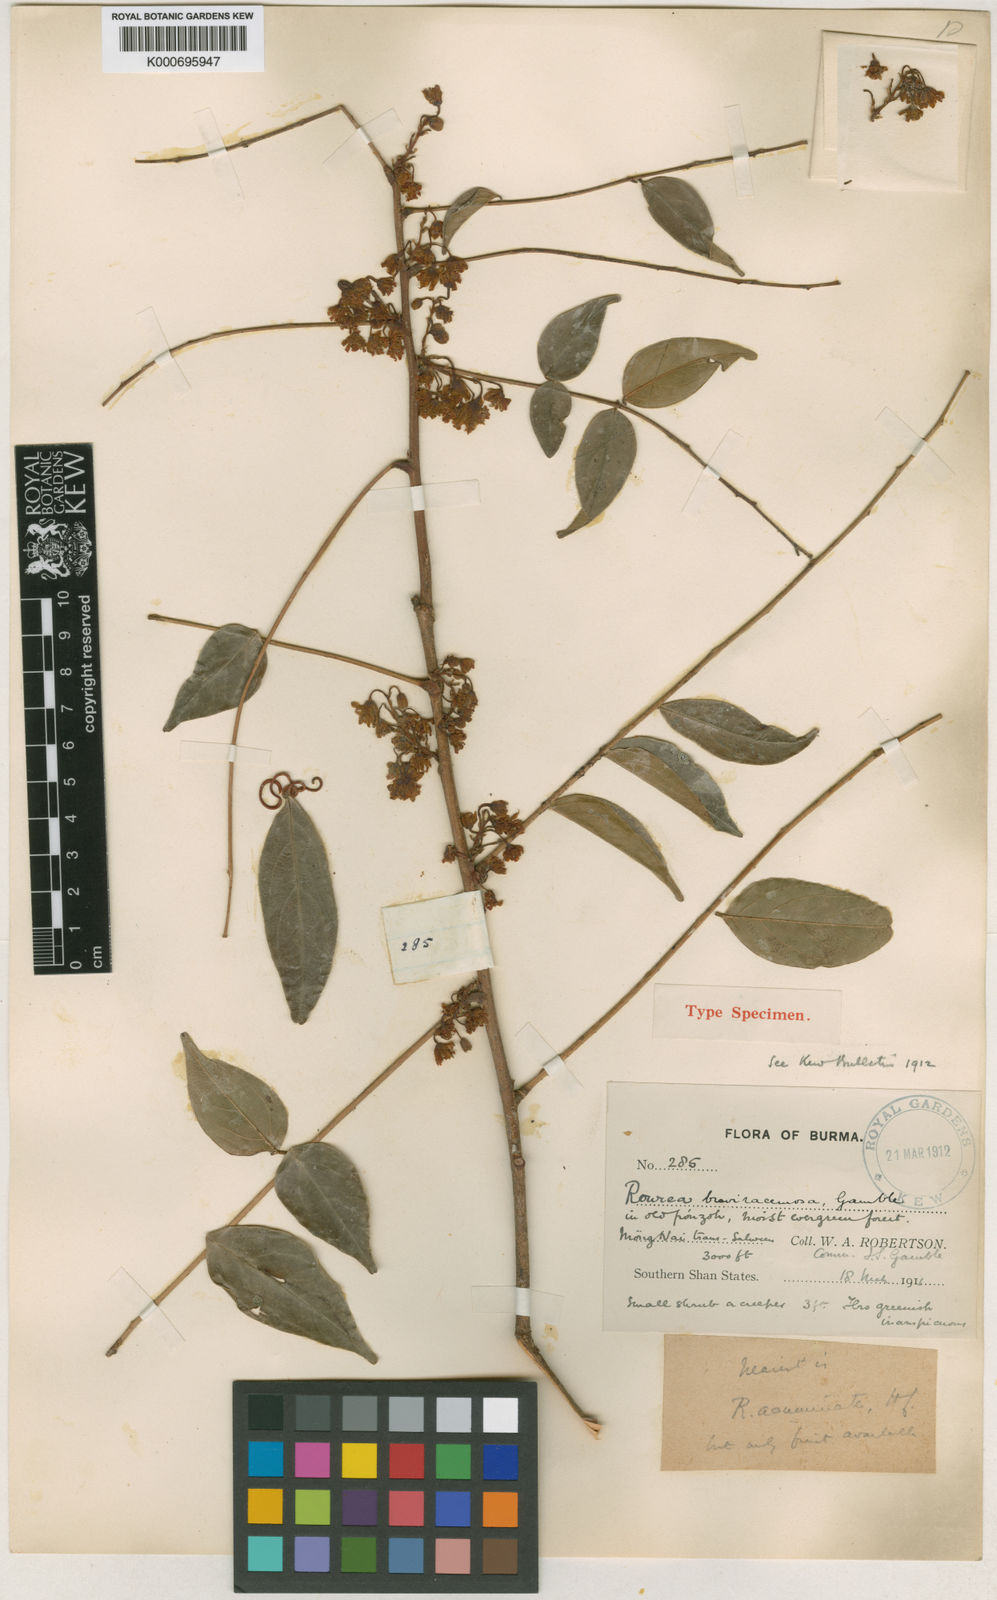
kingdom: Plantae
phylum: Tracheophyta
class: Magnoliopsida
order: Oxalidales
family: Connaraceae
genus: Rourea
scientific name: Rourea breviracemosa
